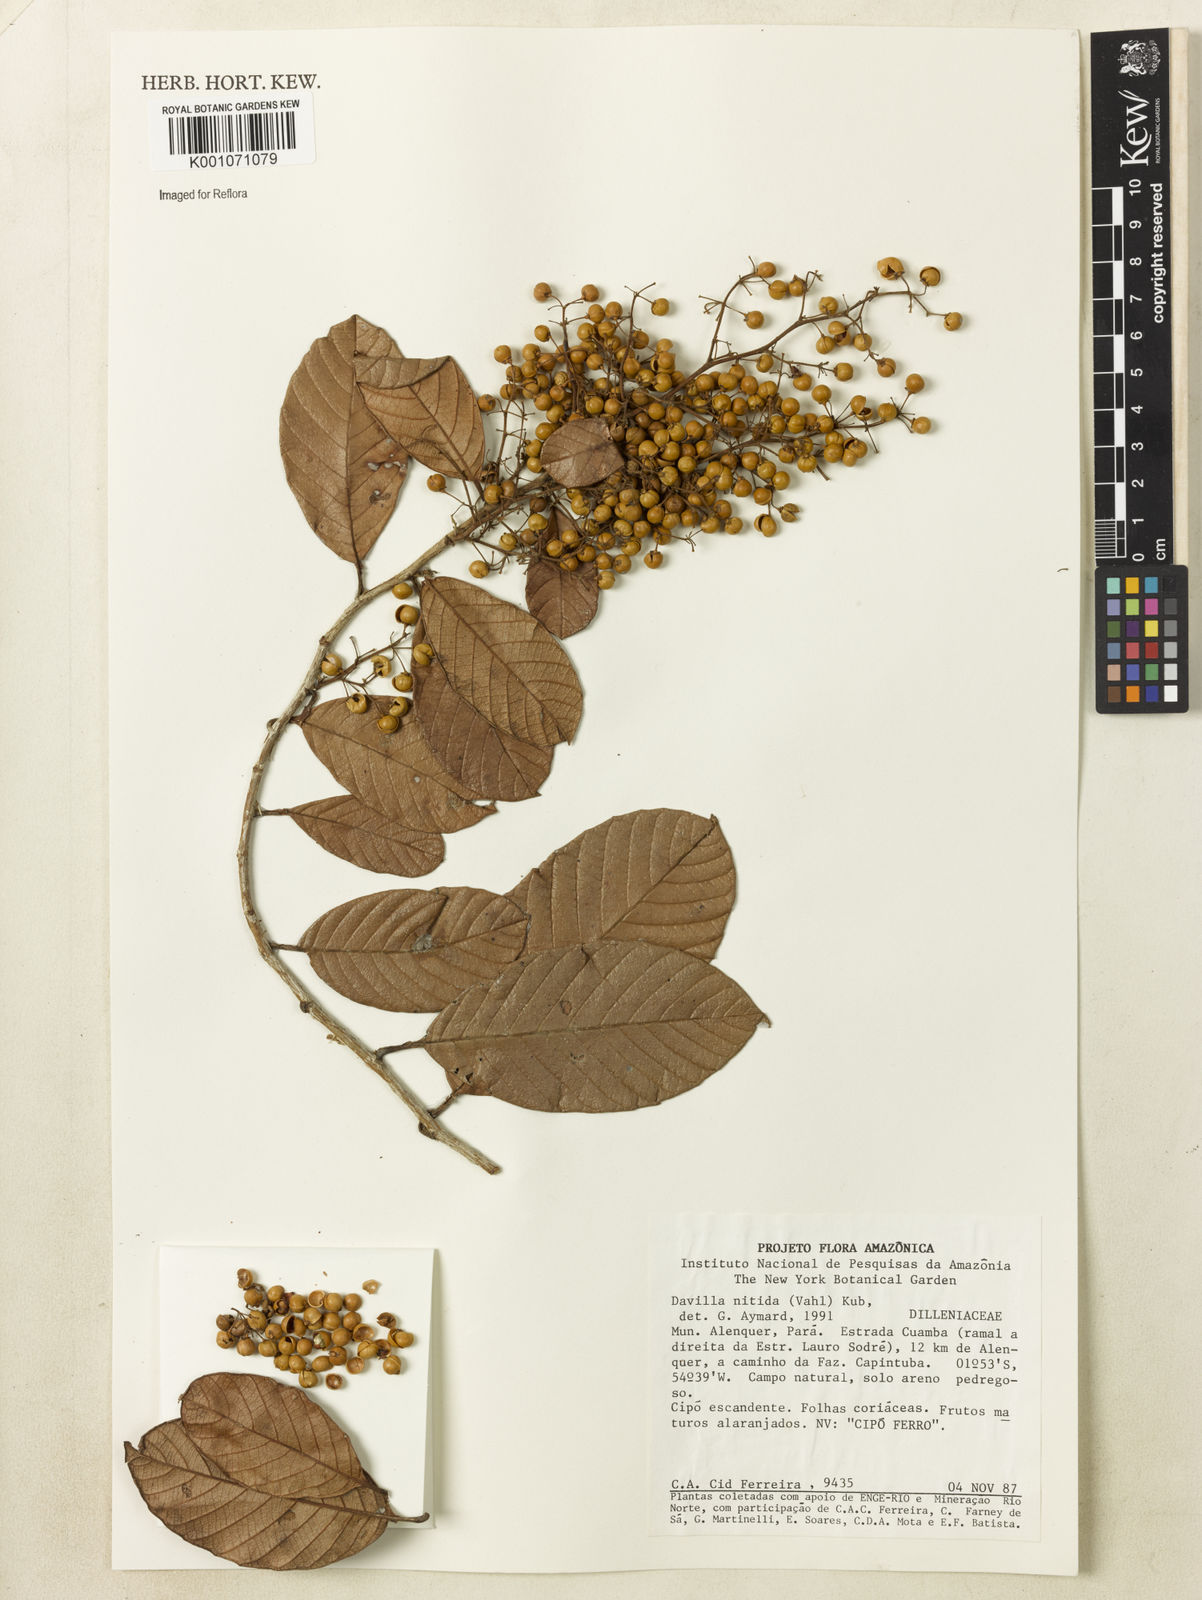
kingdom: Plantae
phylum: Tracheophyta
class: Magnoliopsida
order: Dilleniales
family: Dilleniaceae
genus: Davilla
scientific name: Davilla nitida
